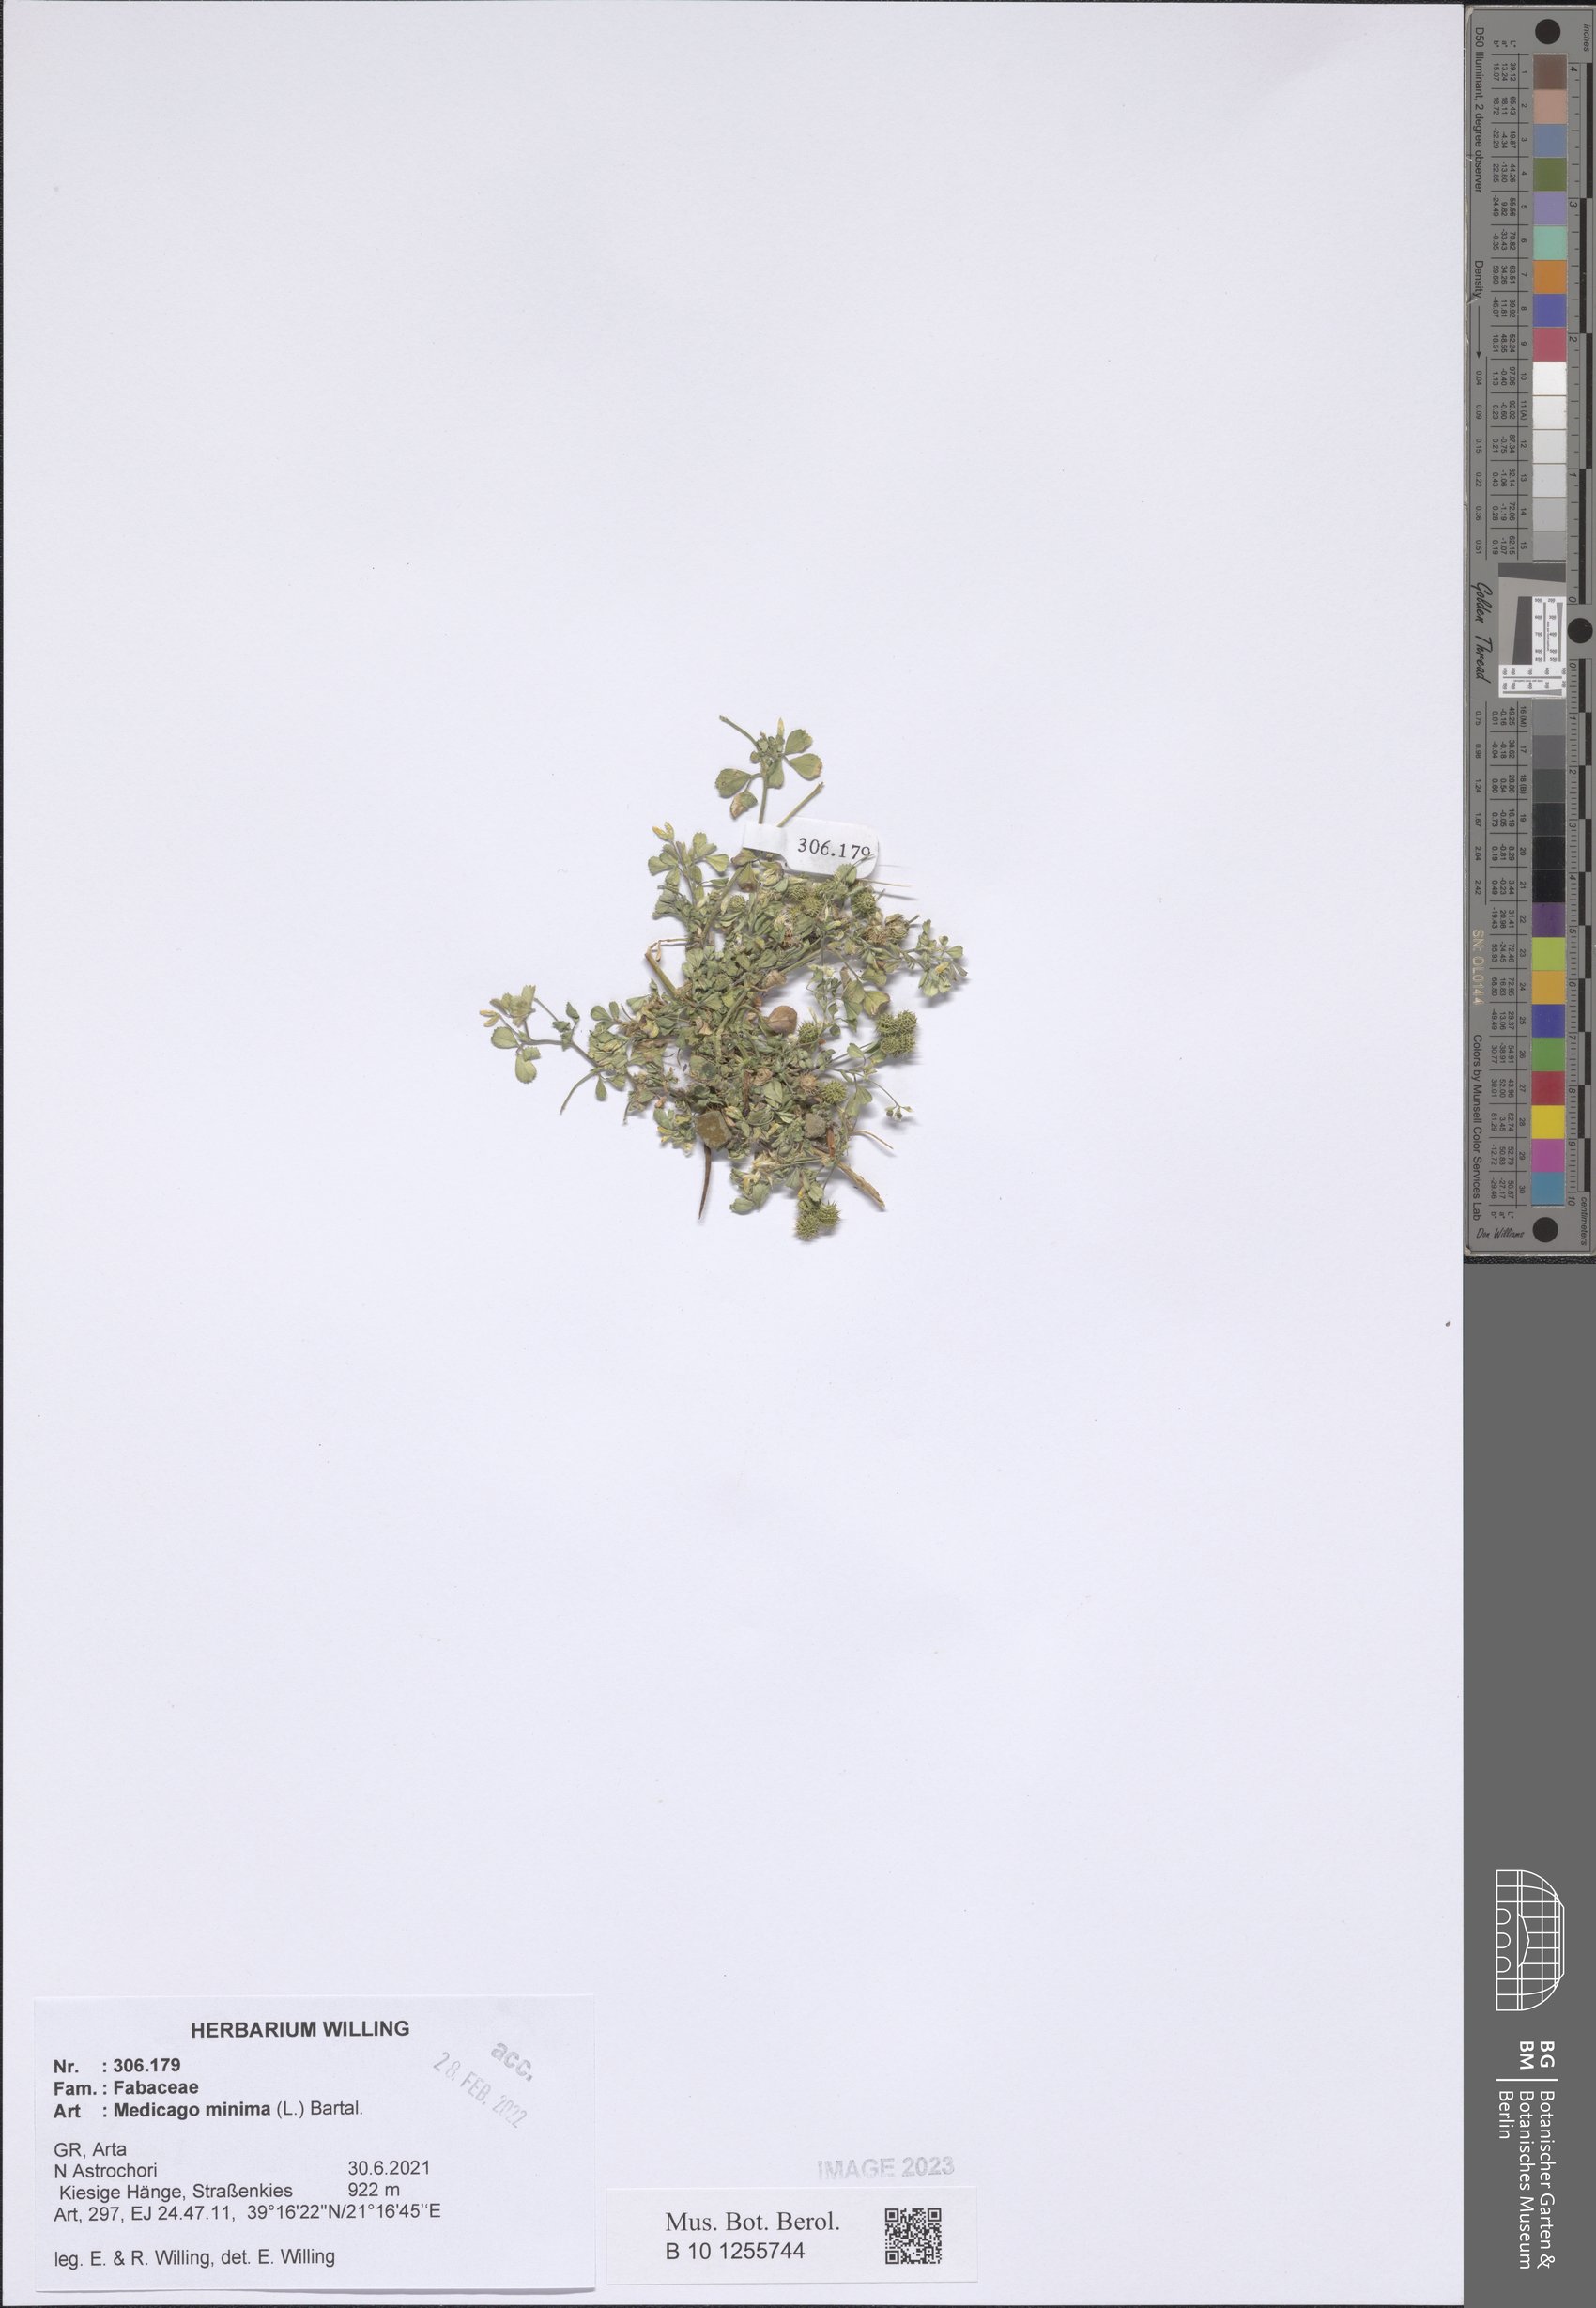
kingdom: Plantae
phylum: Tracheophyta
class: Magnoliopsida
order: Fabales
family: Fabaceae
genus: Medicago
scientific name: Medicago minima
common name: Little bur-clover
